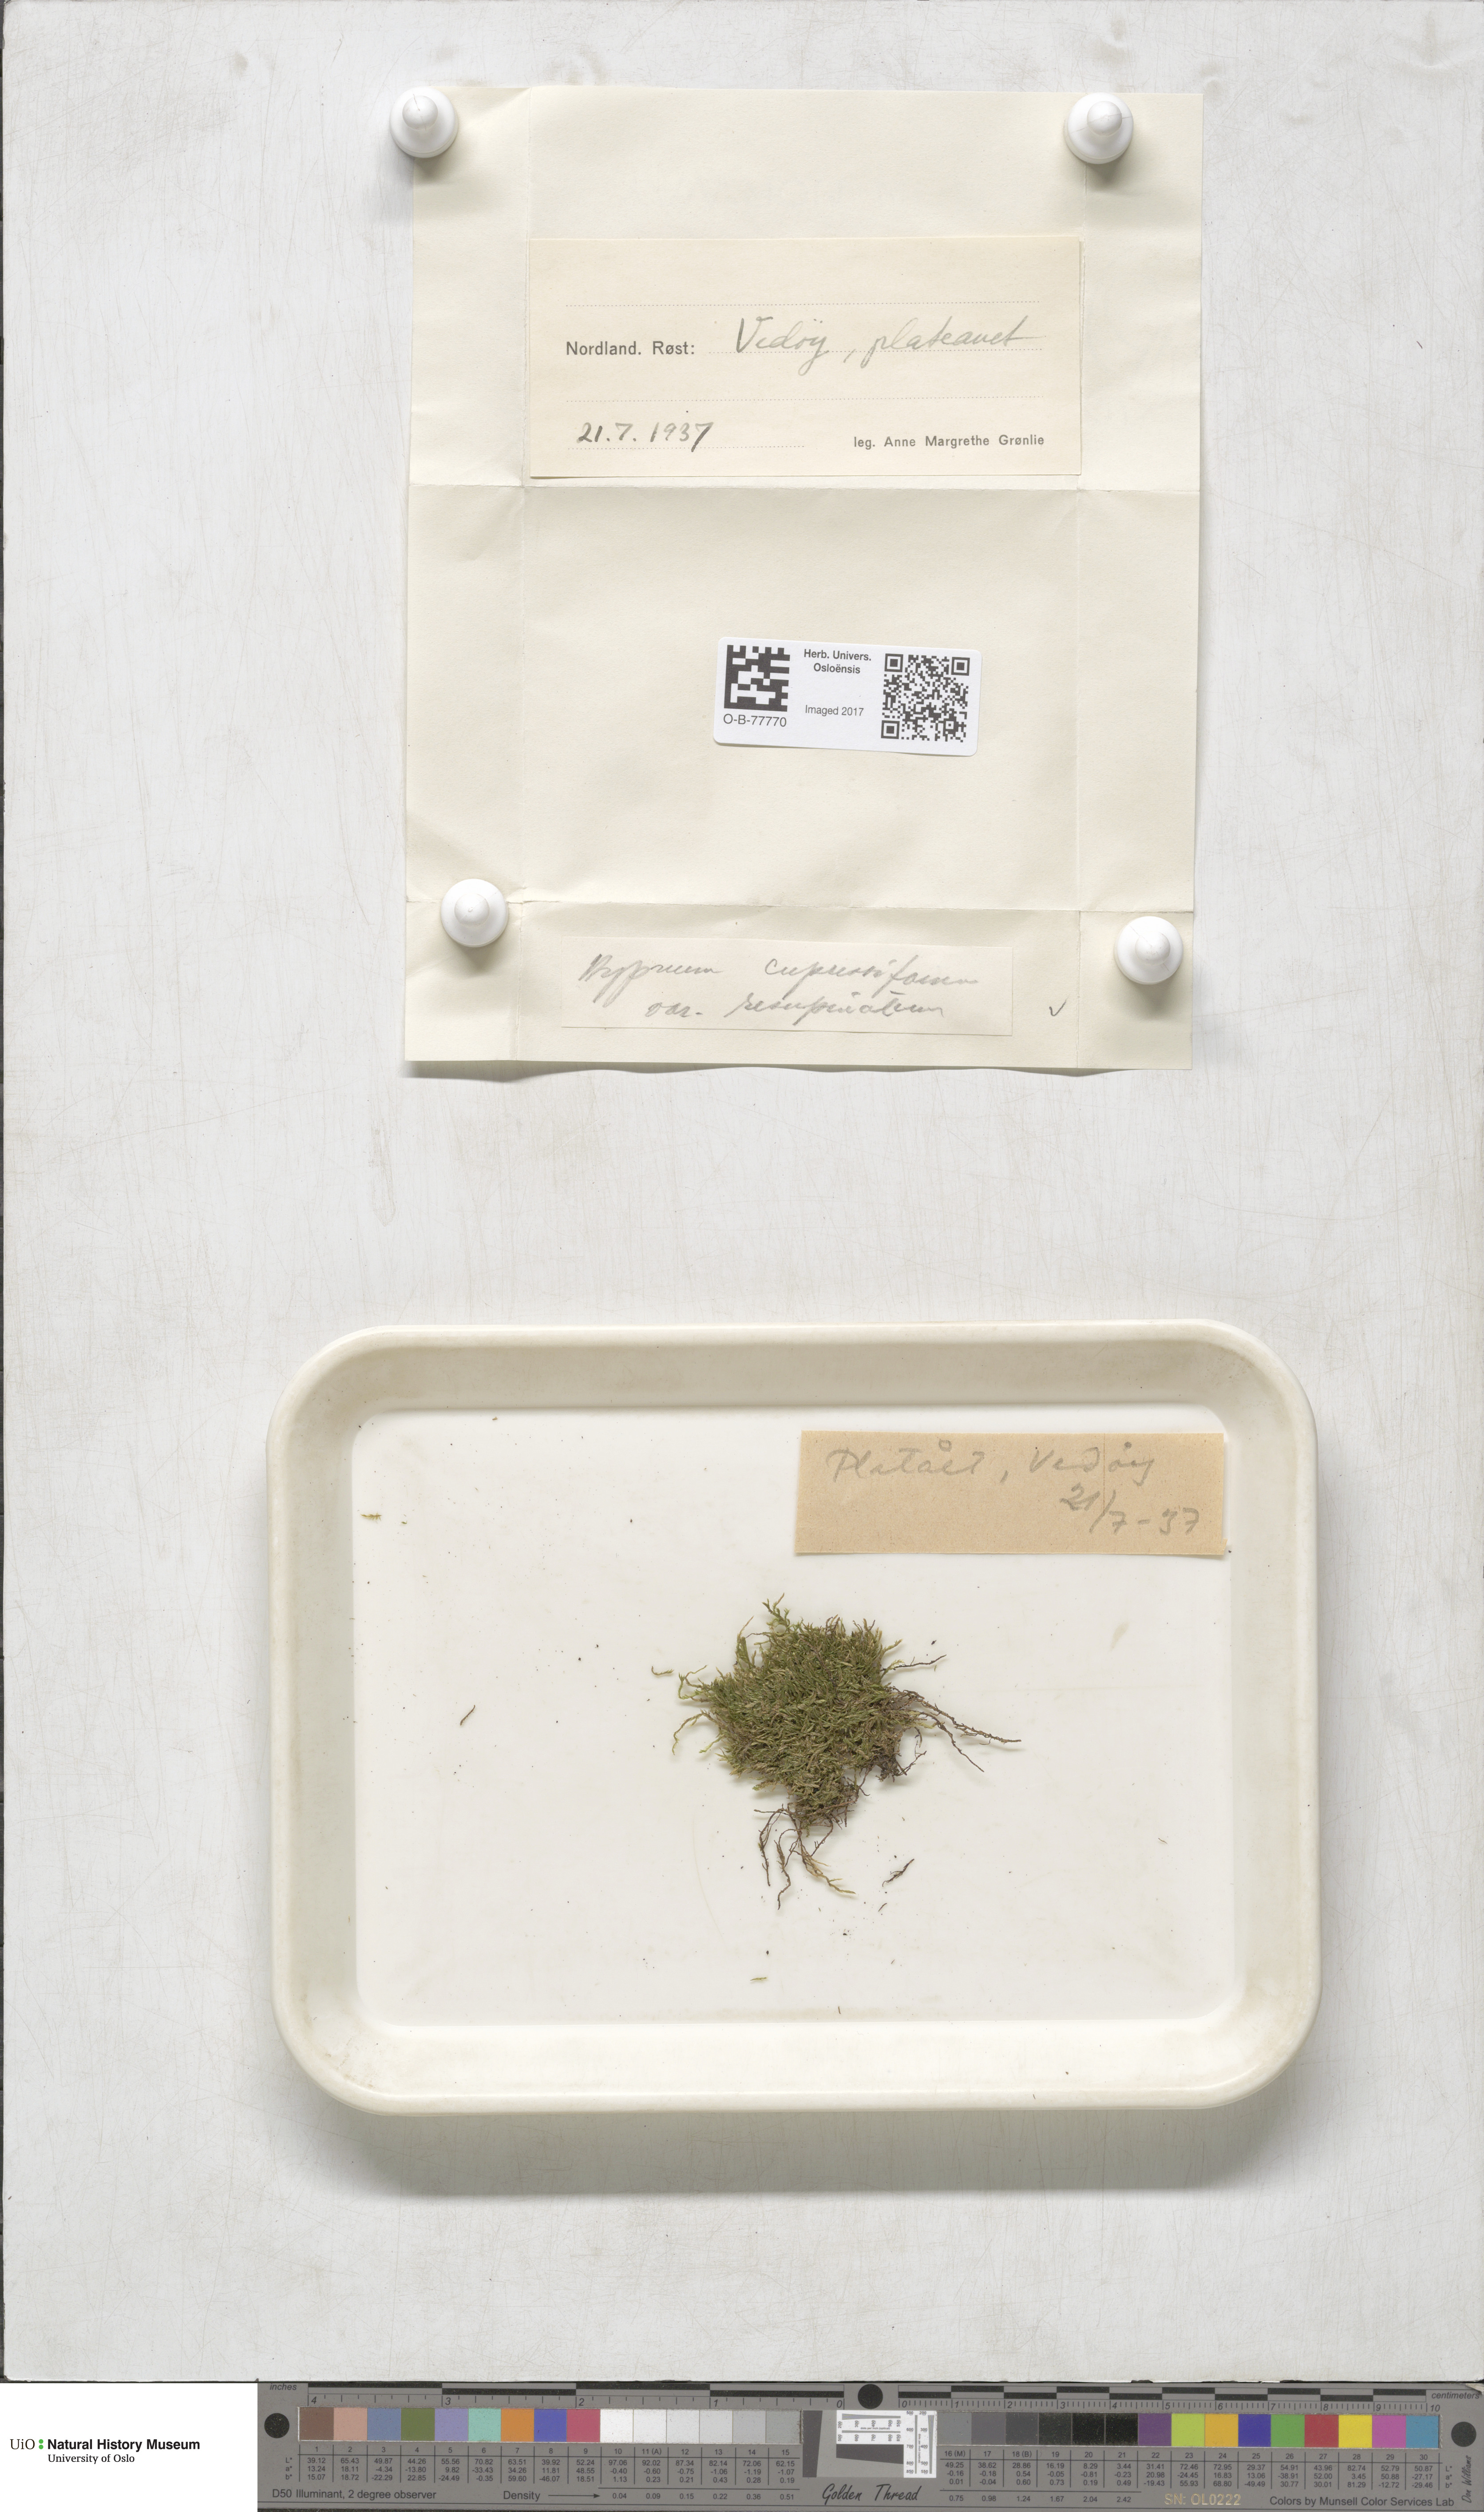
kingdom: Plantae
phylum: Bryophyta
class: Bryopsida
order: Hypnales
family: Hypnaceae
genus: Hypnum
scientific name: Hypnum cupressiforme
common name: Cypress-leaved plait-moss
